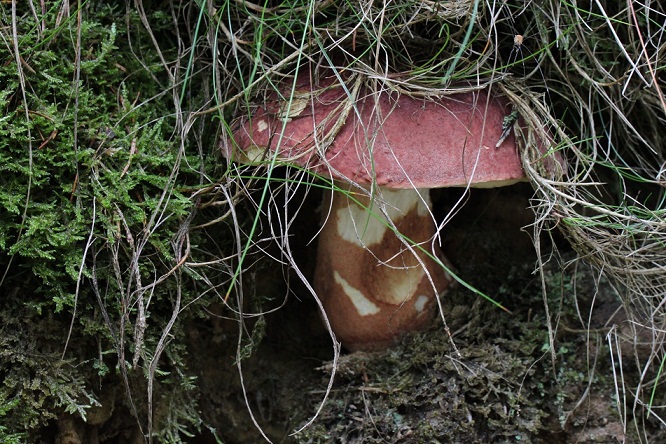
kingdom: Fungi
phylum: Basidiomycota
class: Agaricomycetes
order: Boletales
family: Boletaceae
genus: Boletus
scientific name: Boletus pinophilus
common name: rødbrun rørhat
